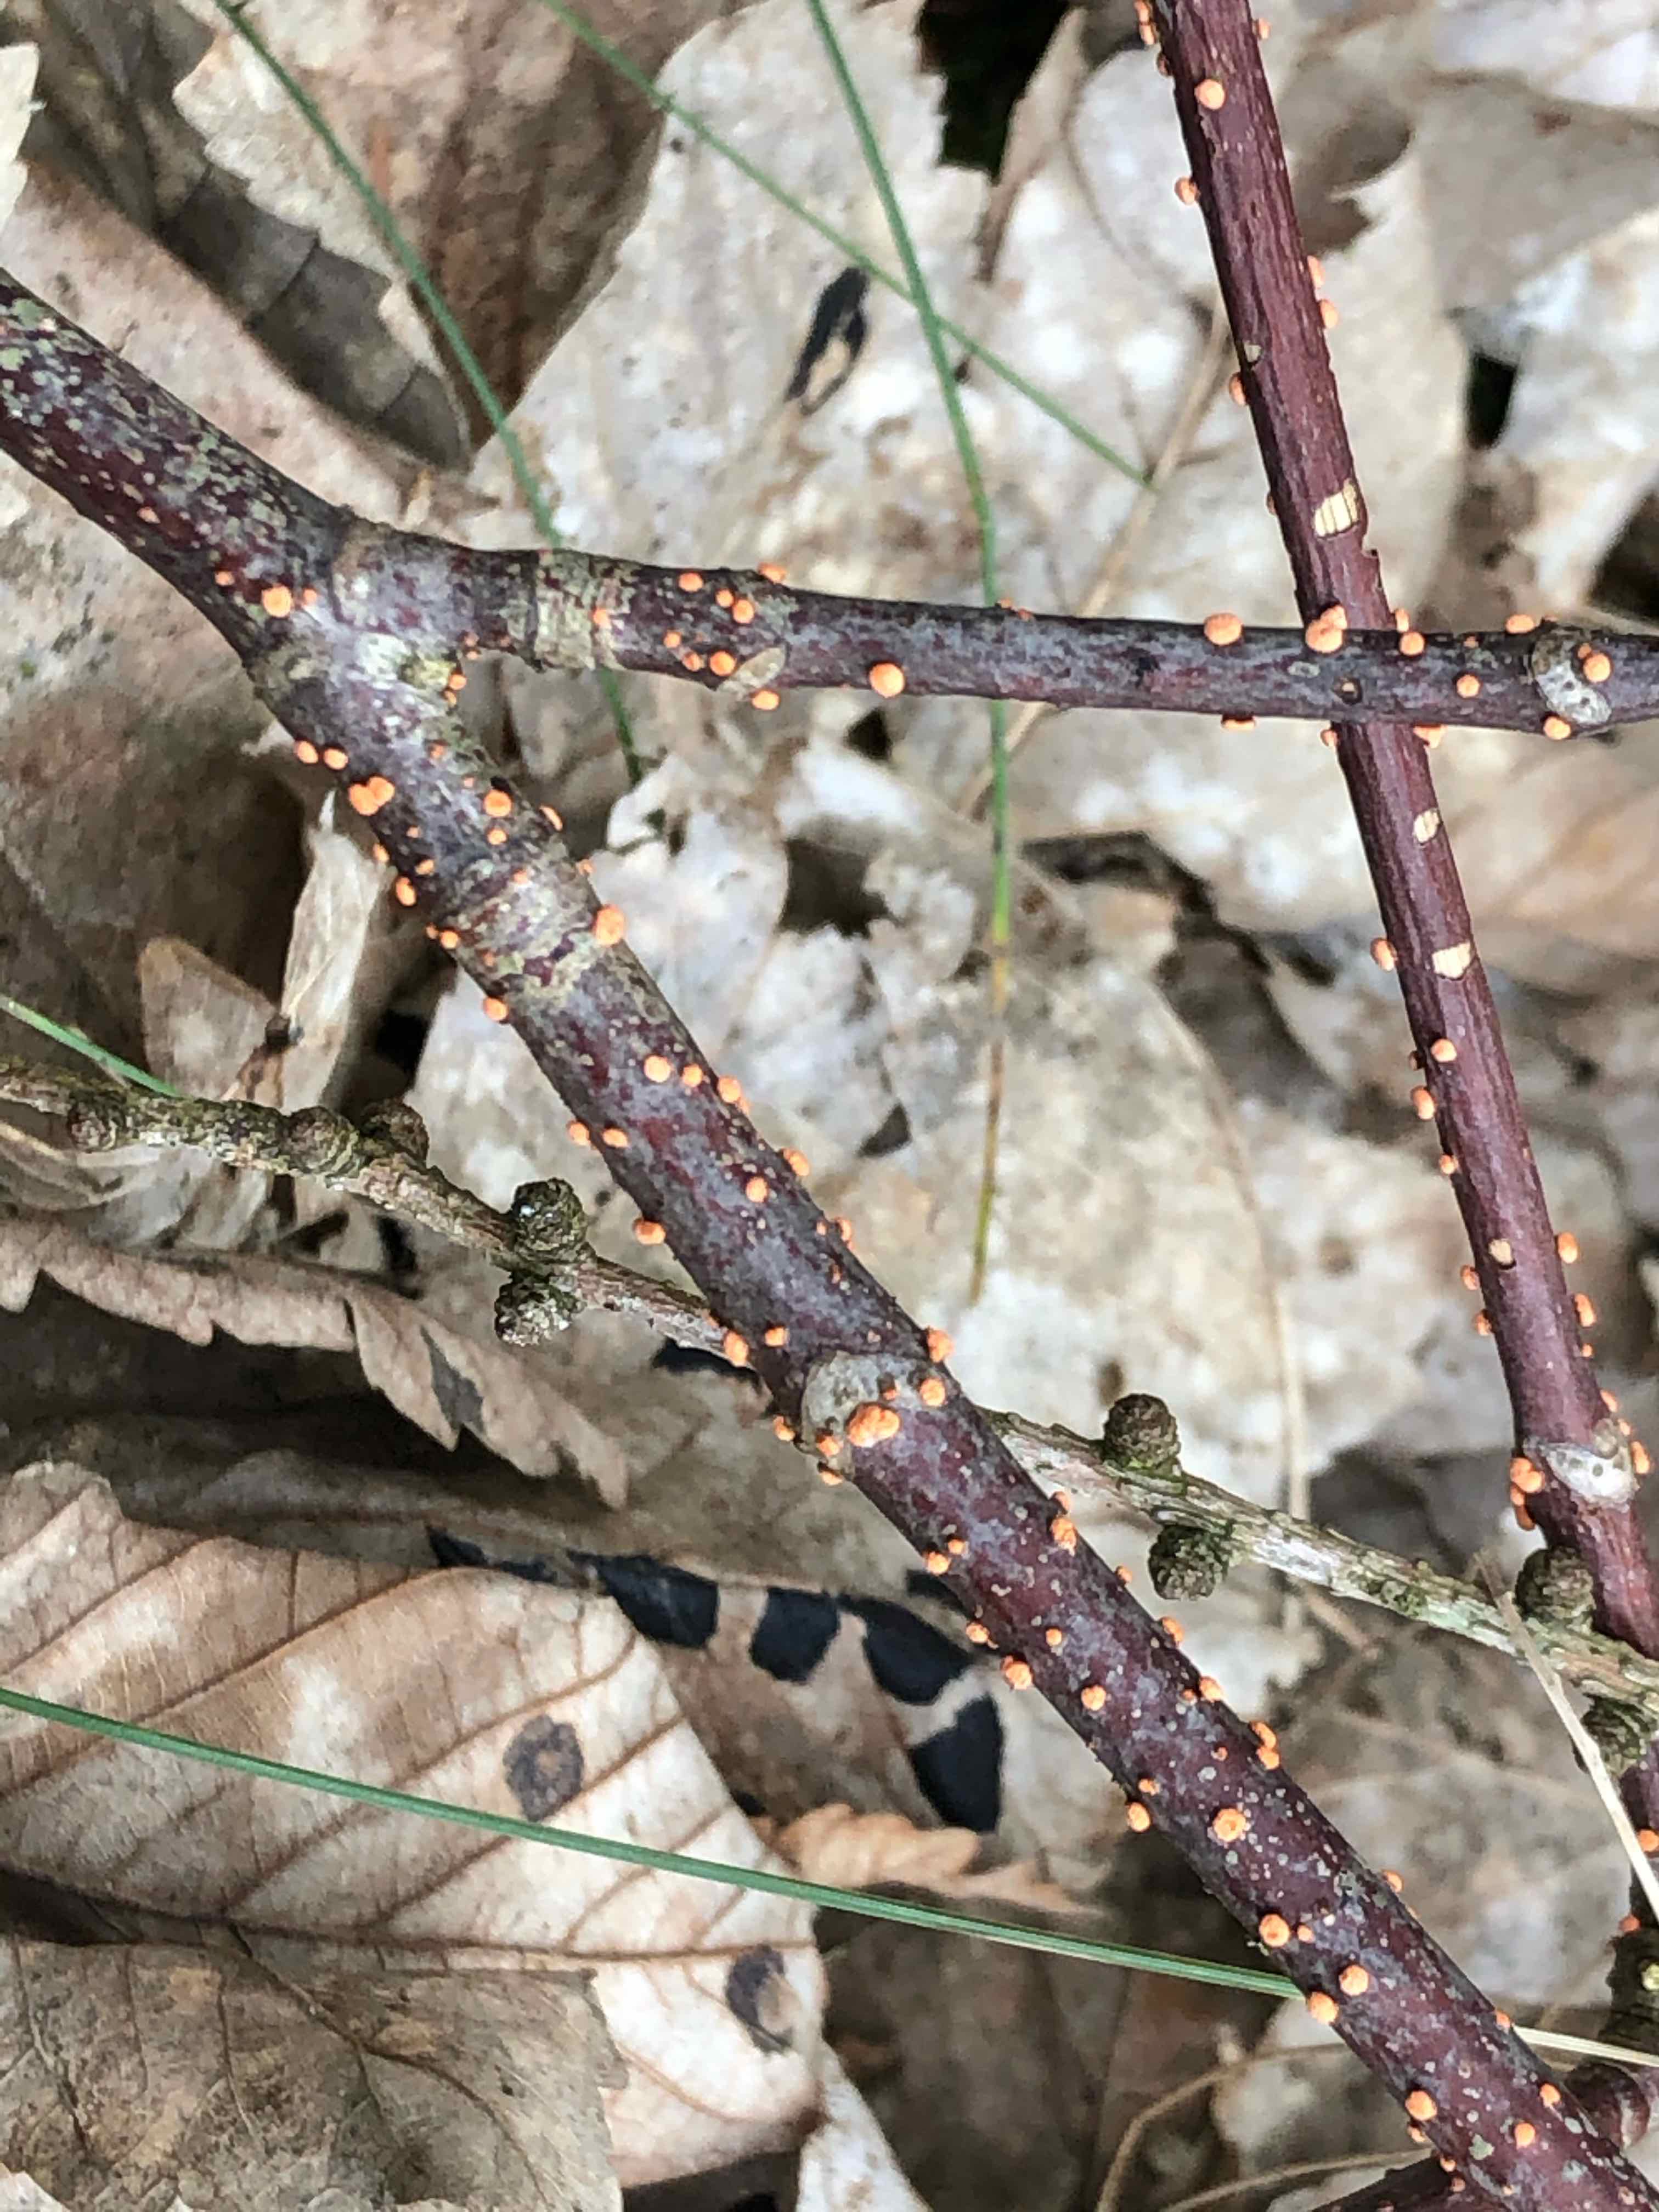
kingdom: Fungi
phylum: Ascomycota
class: Sordariomycetes
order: Hypocreales
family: Nectriaceae
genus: Nectria
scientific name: Nectria cinnabarina
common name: almindelig cinnobersvamp
